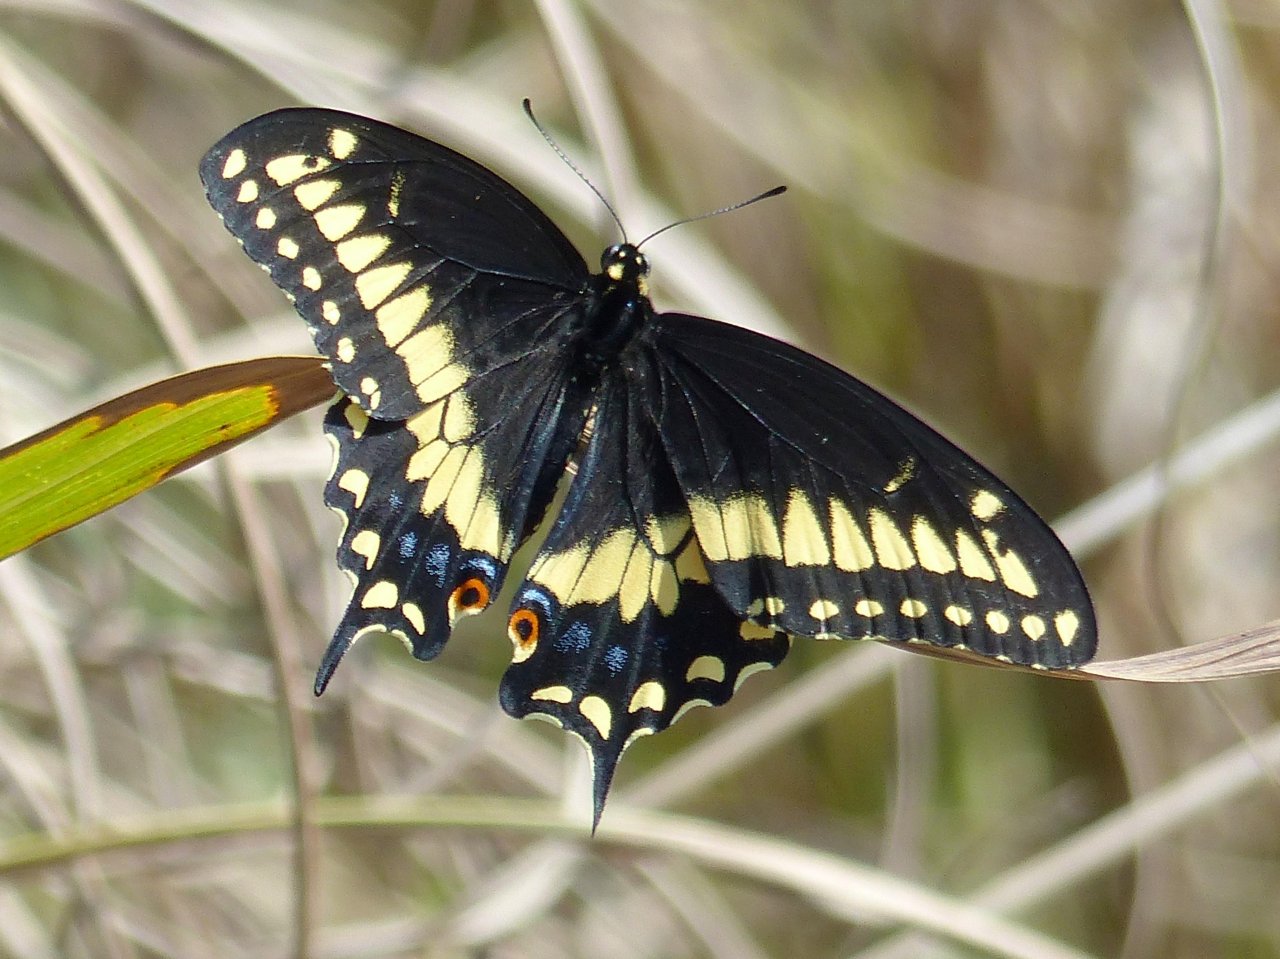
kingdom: Animalia
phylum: Arthropoda
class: Insecta
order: Lepidoptera
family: Papilionidae
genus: Papilio
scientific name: Papilio polyxenes
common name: Black Swallowtail
